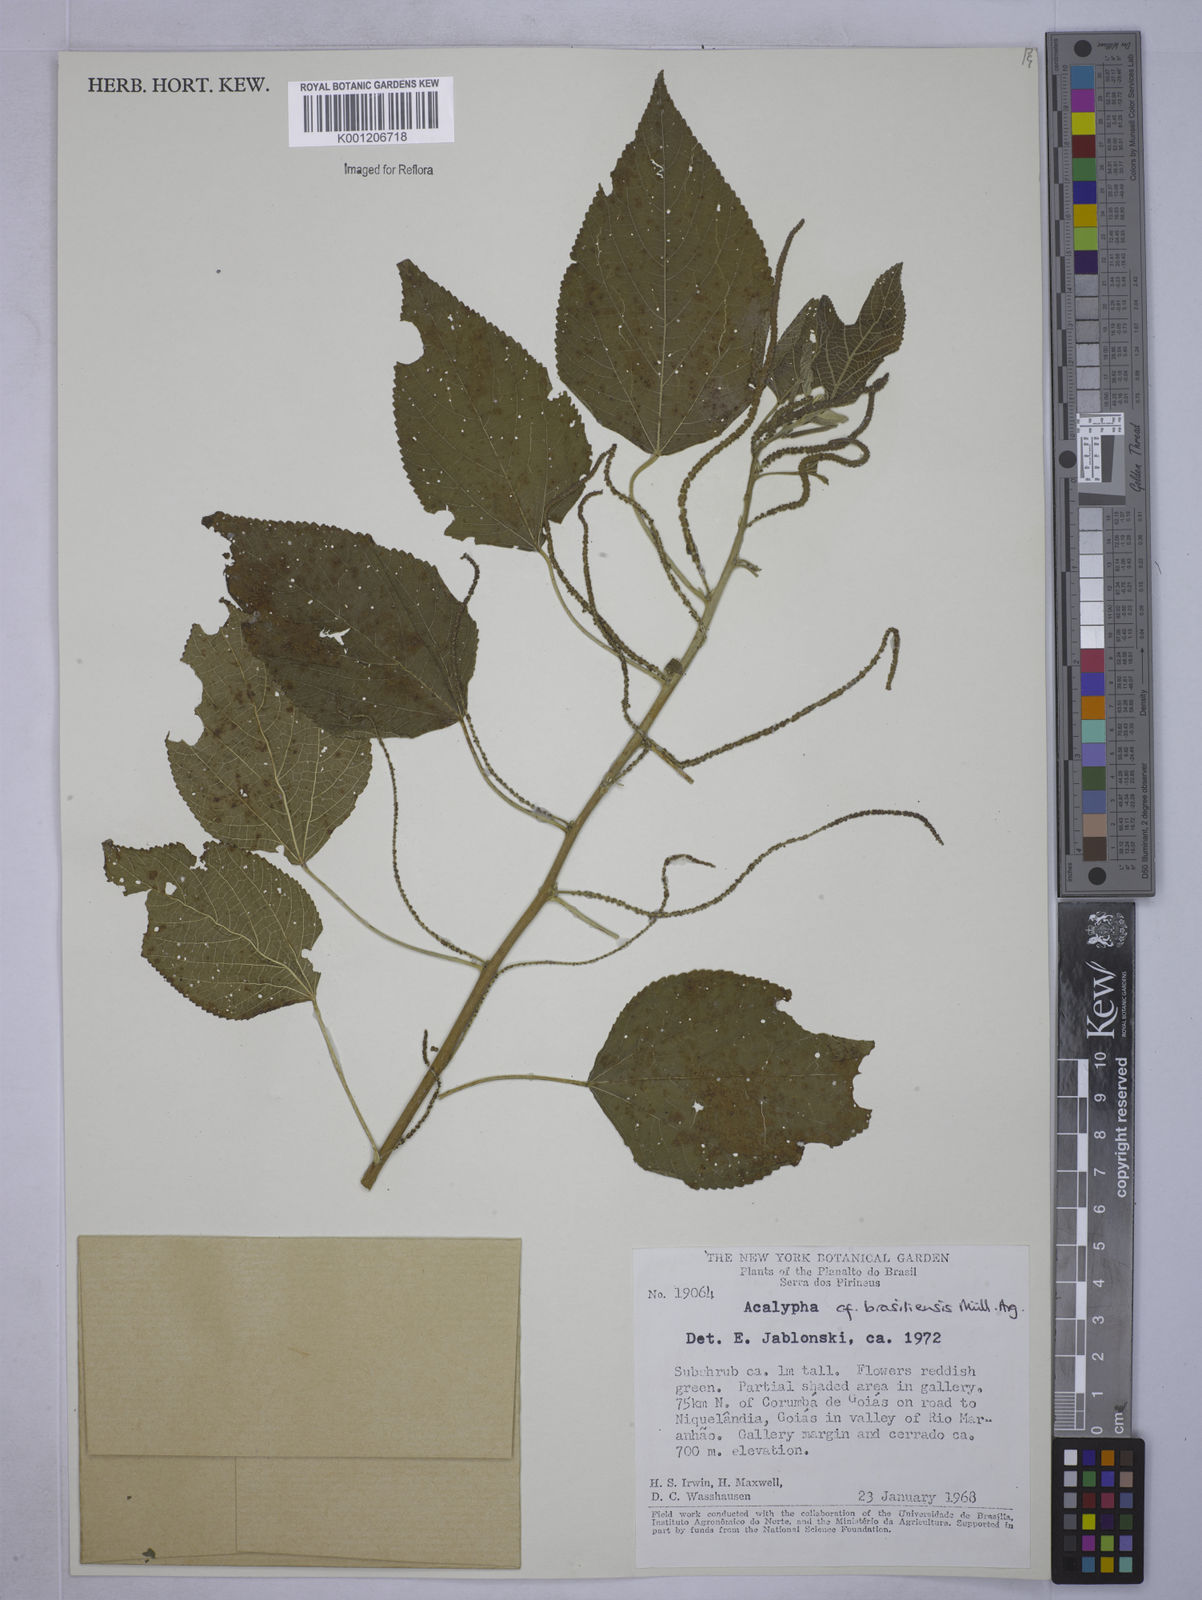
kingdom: Plantae
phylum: Tracheophyta
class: Magnoliopsida
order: Malpighiales
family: Euphorbiaceae
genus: Acalypha
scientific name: Acalypha
